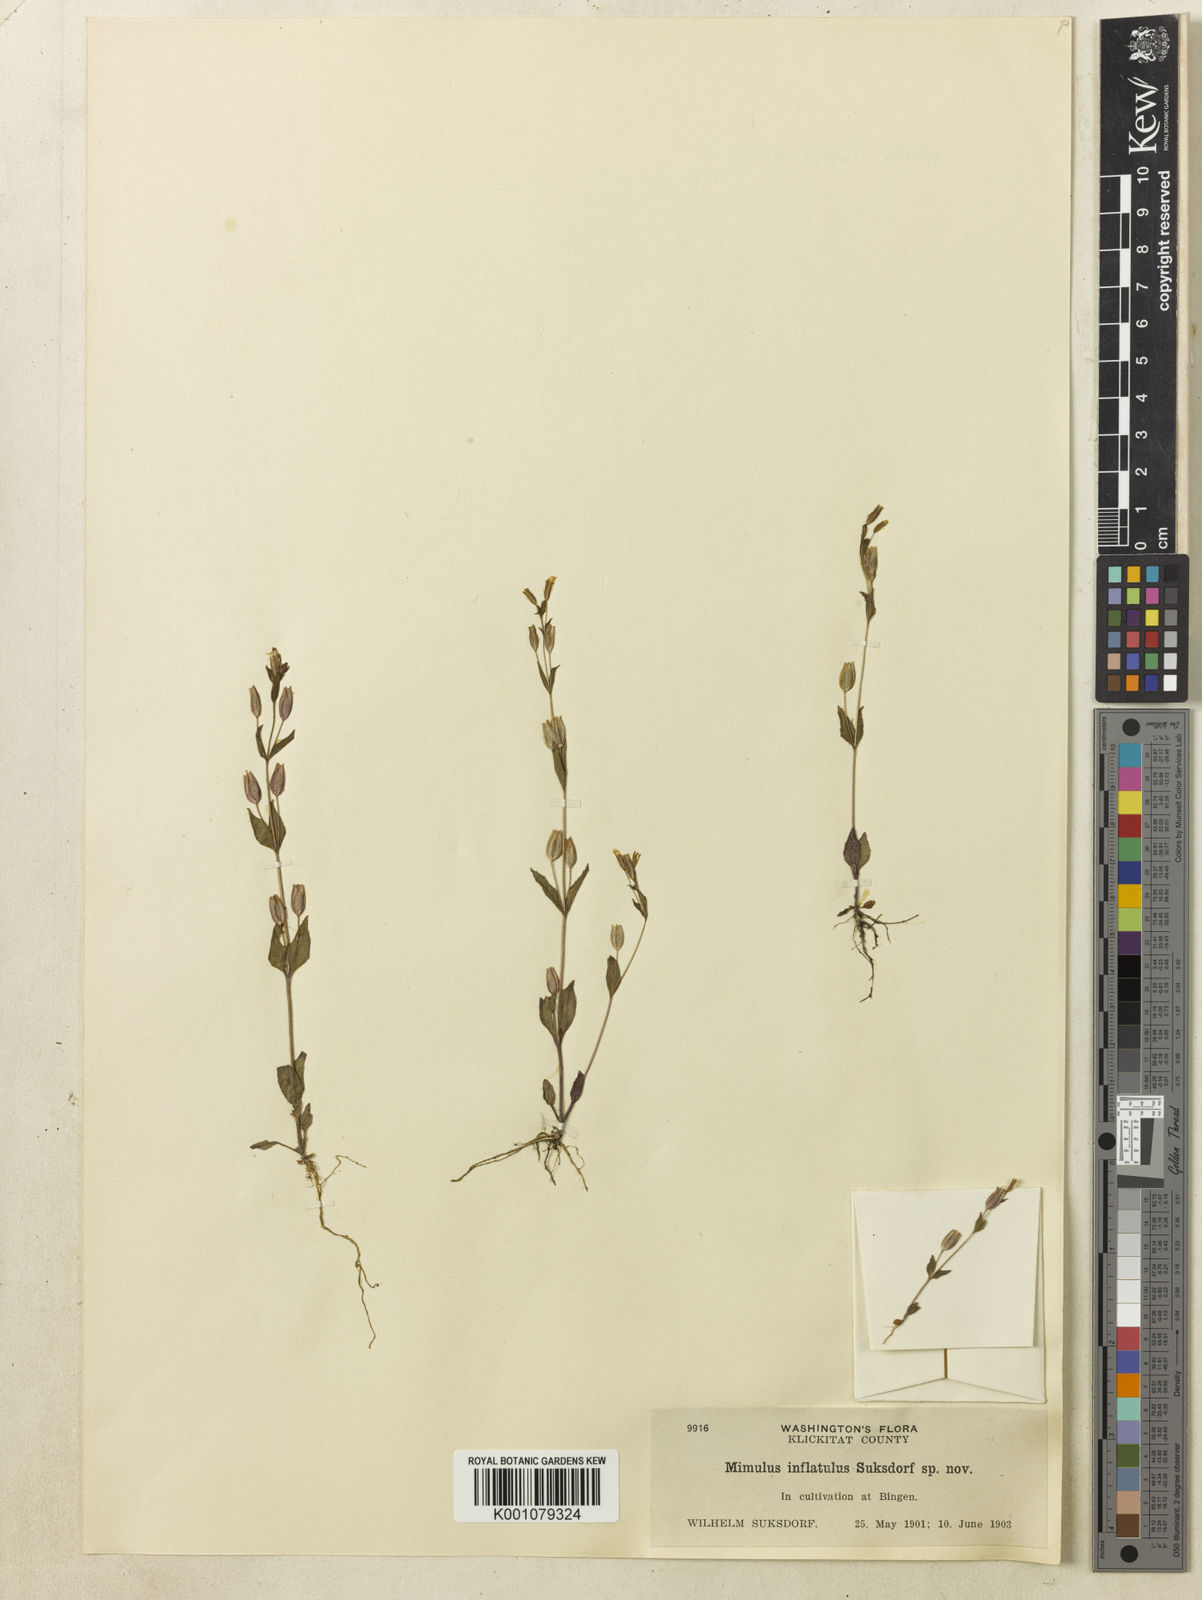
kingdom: Plantae
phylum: Tracheophyta
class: Magnoliopsida
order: Lamiales
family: Phrymaceae
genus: Erythranthe
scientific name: Erythranthe inflatula
